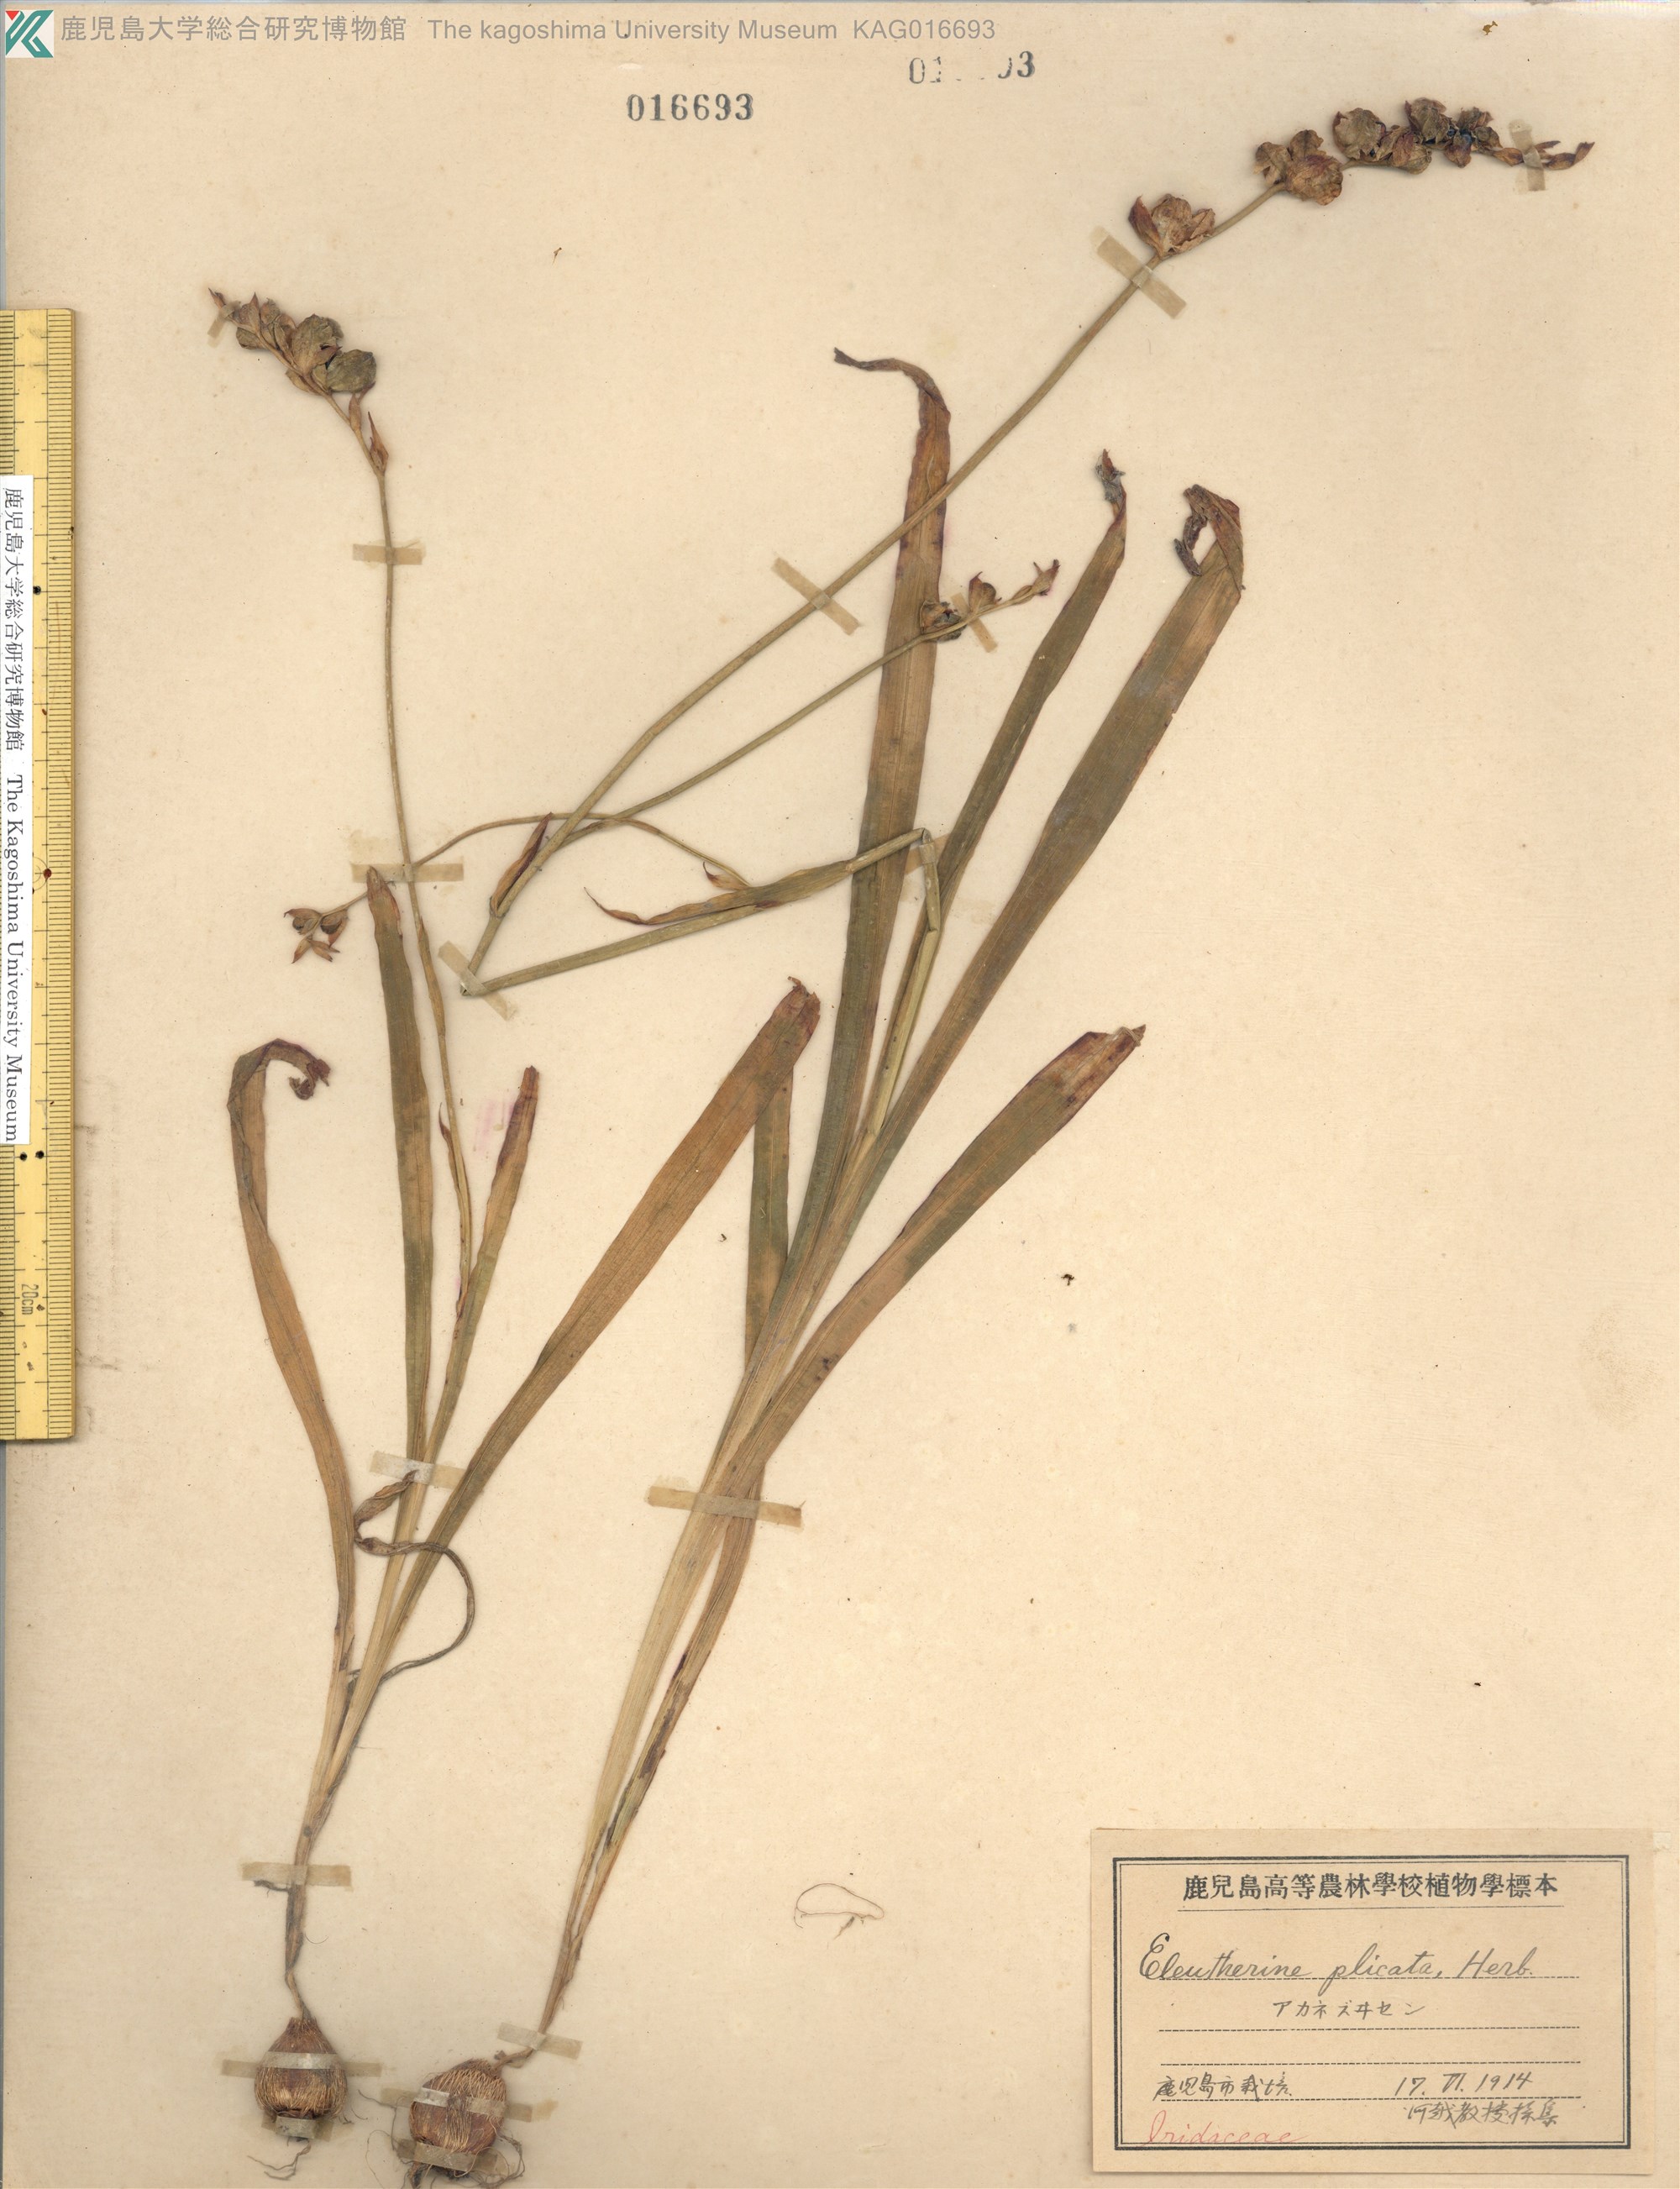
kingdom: Plantae
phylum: Tracheophyta
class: Liliopsida
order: Asparagales
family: Iridaceae
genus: Eleutherine
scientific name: Eleutherine bulbosa
